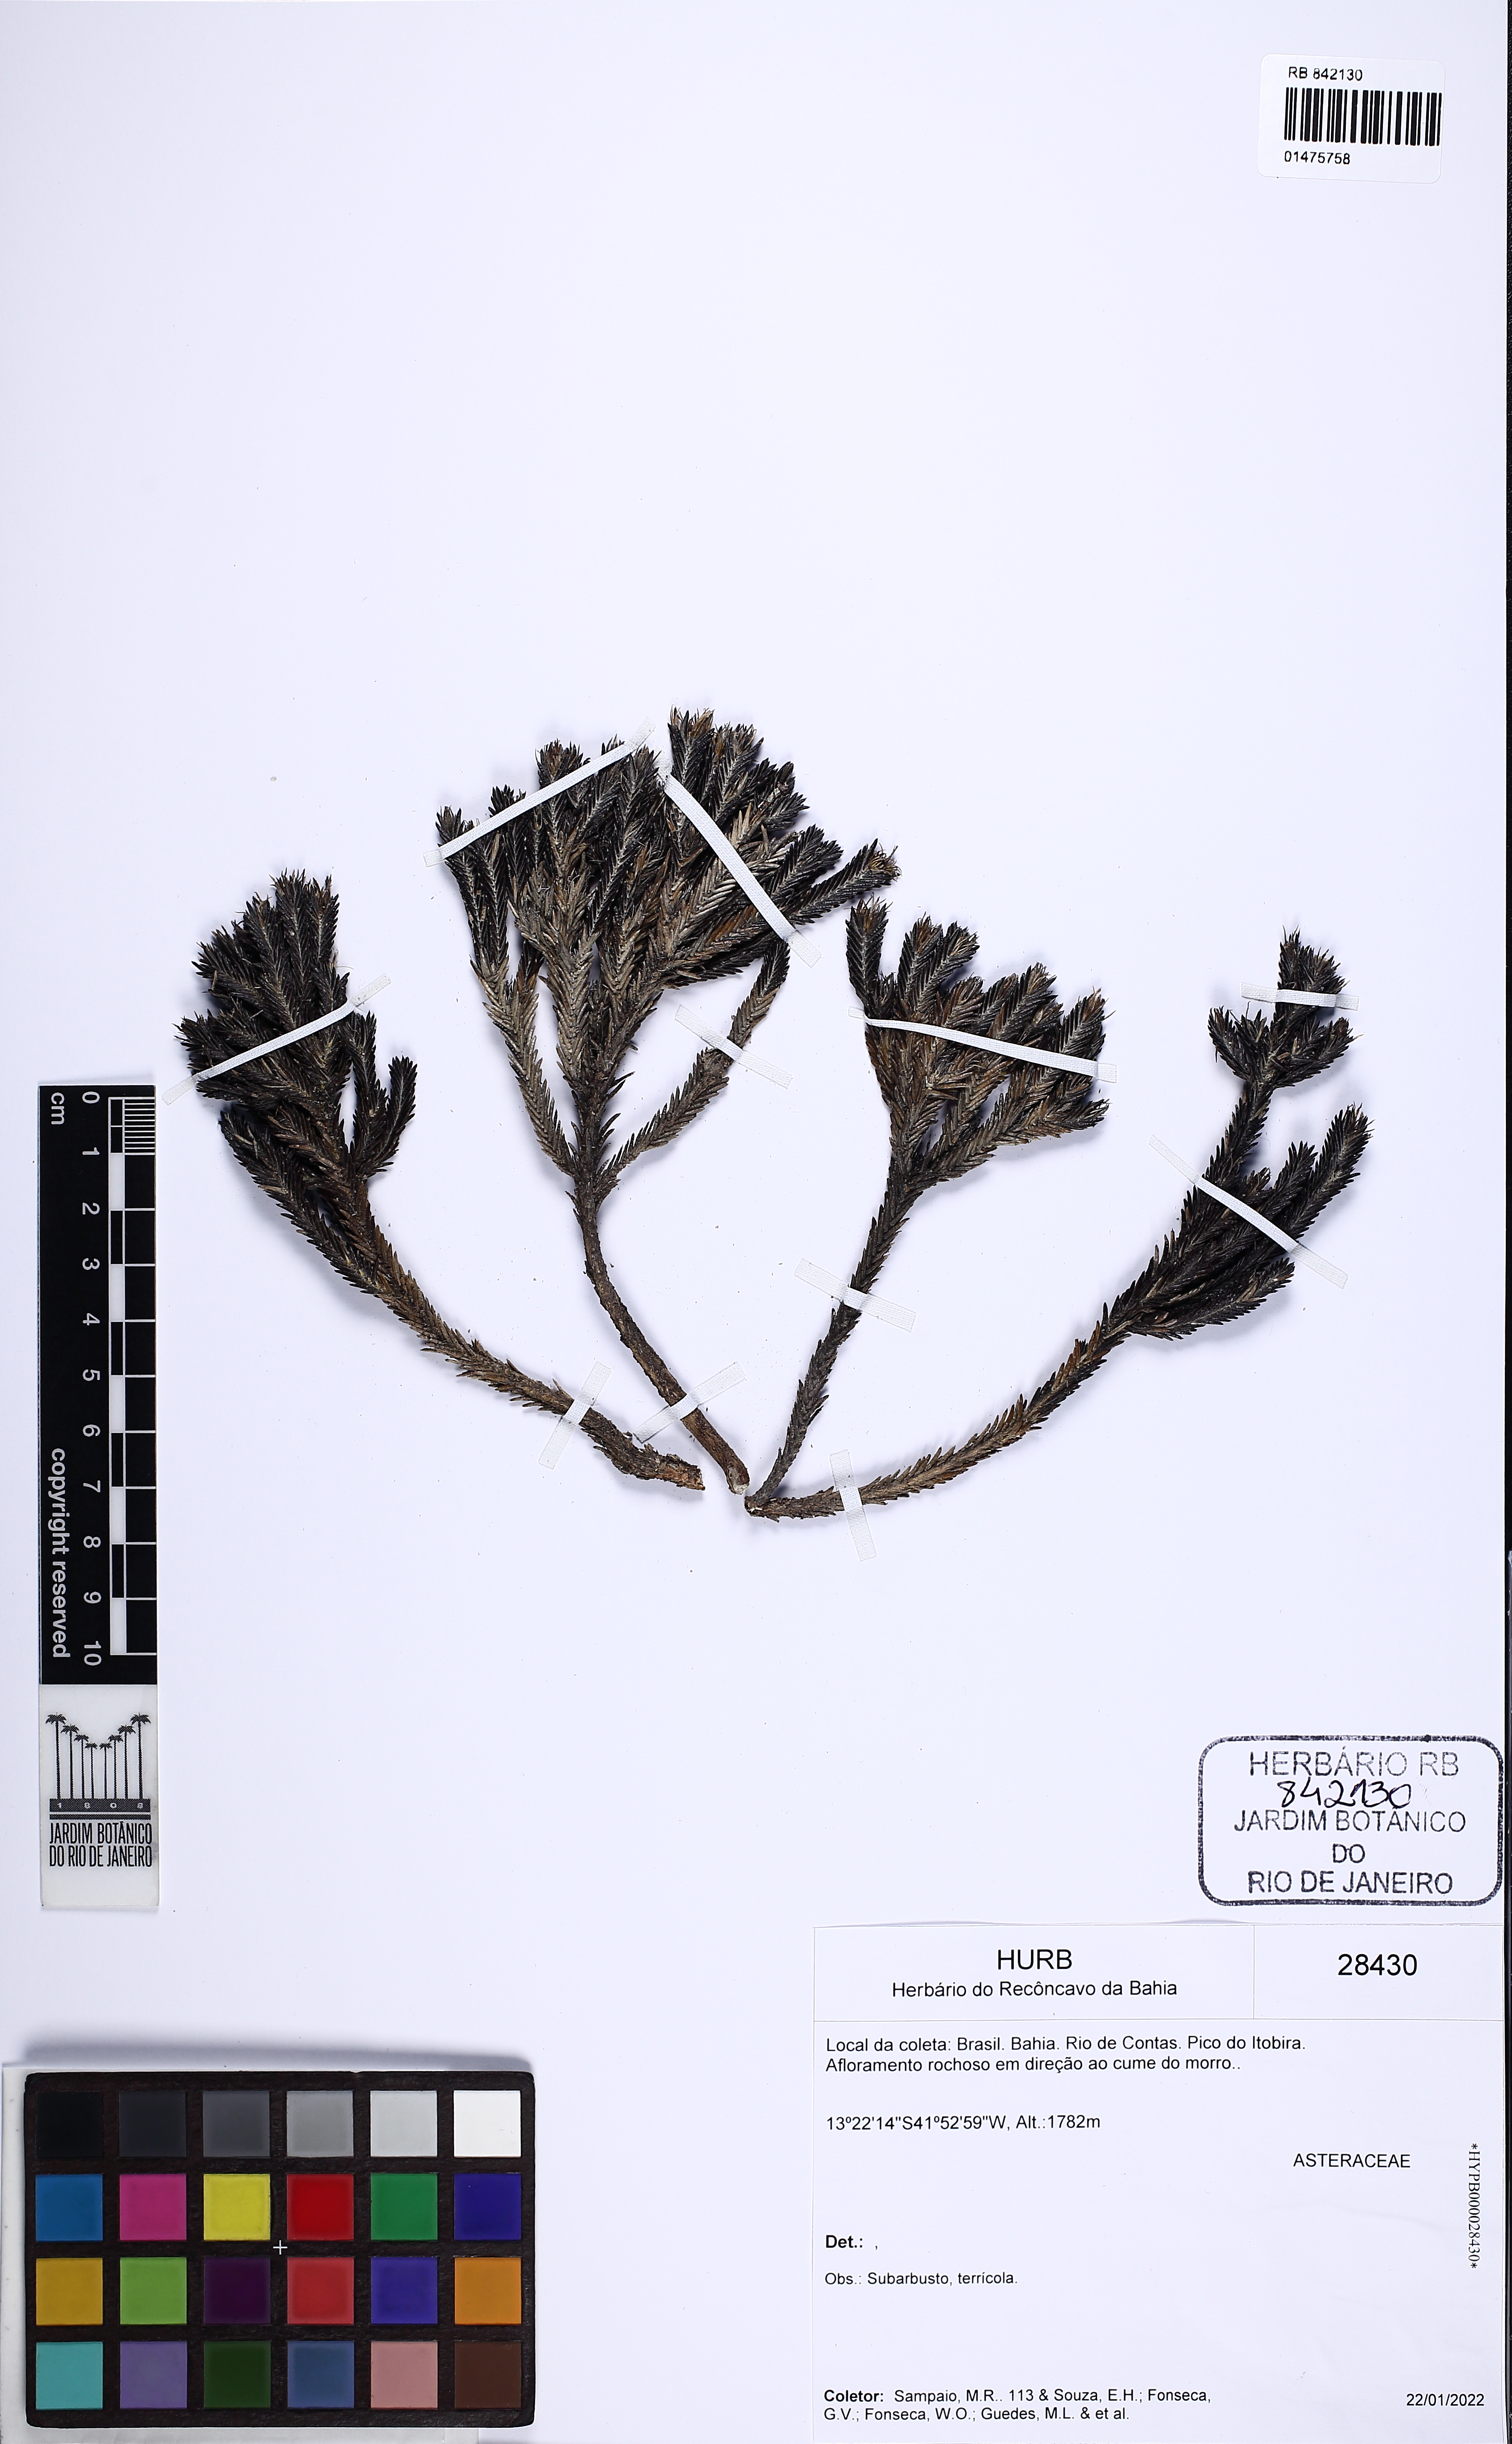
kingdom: Plantae
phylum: Tracheophyta
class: Magnoliopsida
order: Gentianales
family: Rubiaceae
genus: Declieuxia
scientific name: Declieuxia
